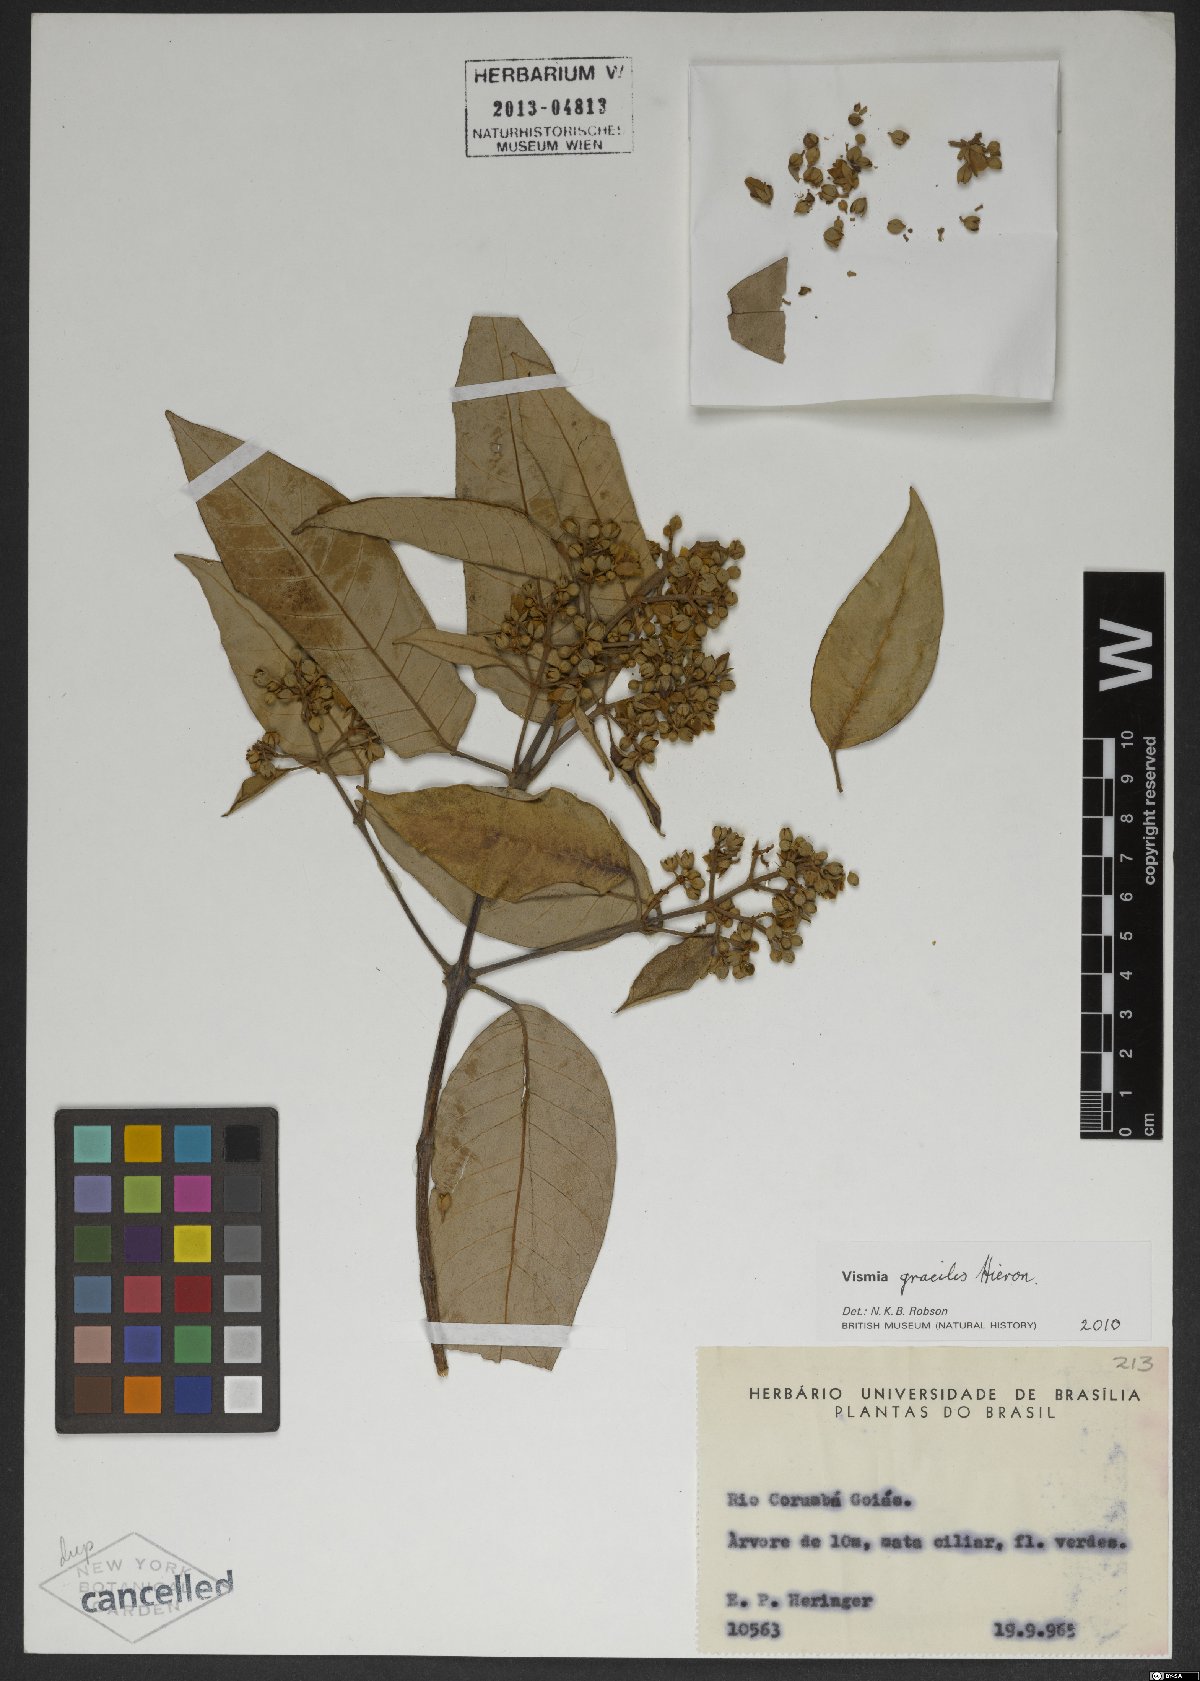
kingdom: Plantae
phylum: Tracheophyta
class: Magnoliopsida
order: Malpighiales
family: Hypericaceae
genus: Vismia
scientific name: Vismia gracilis
